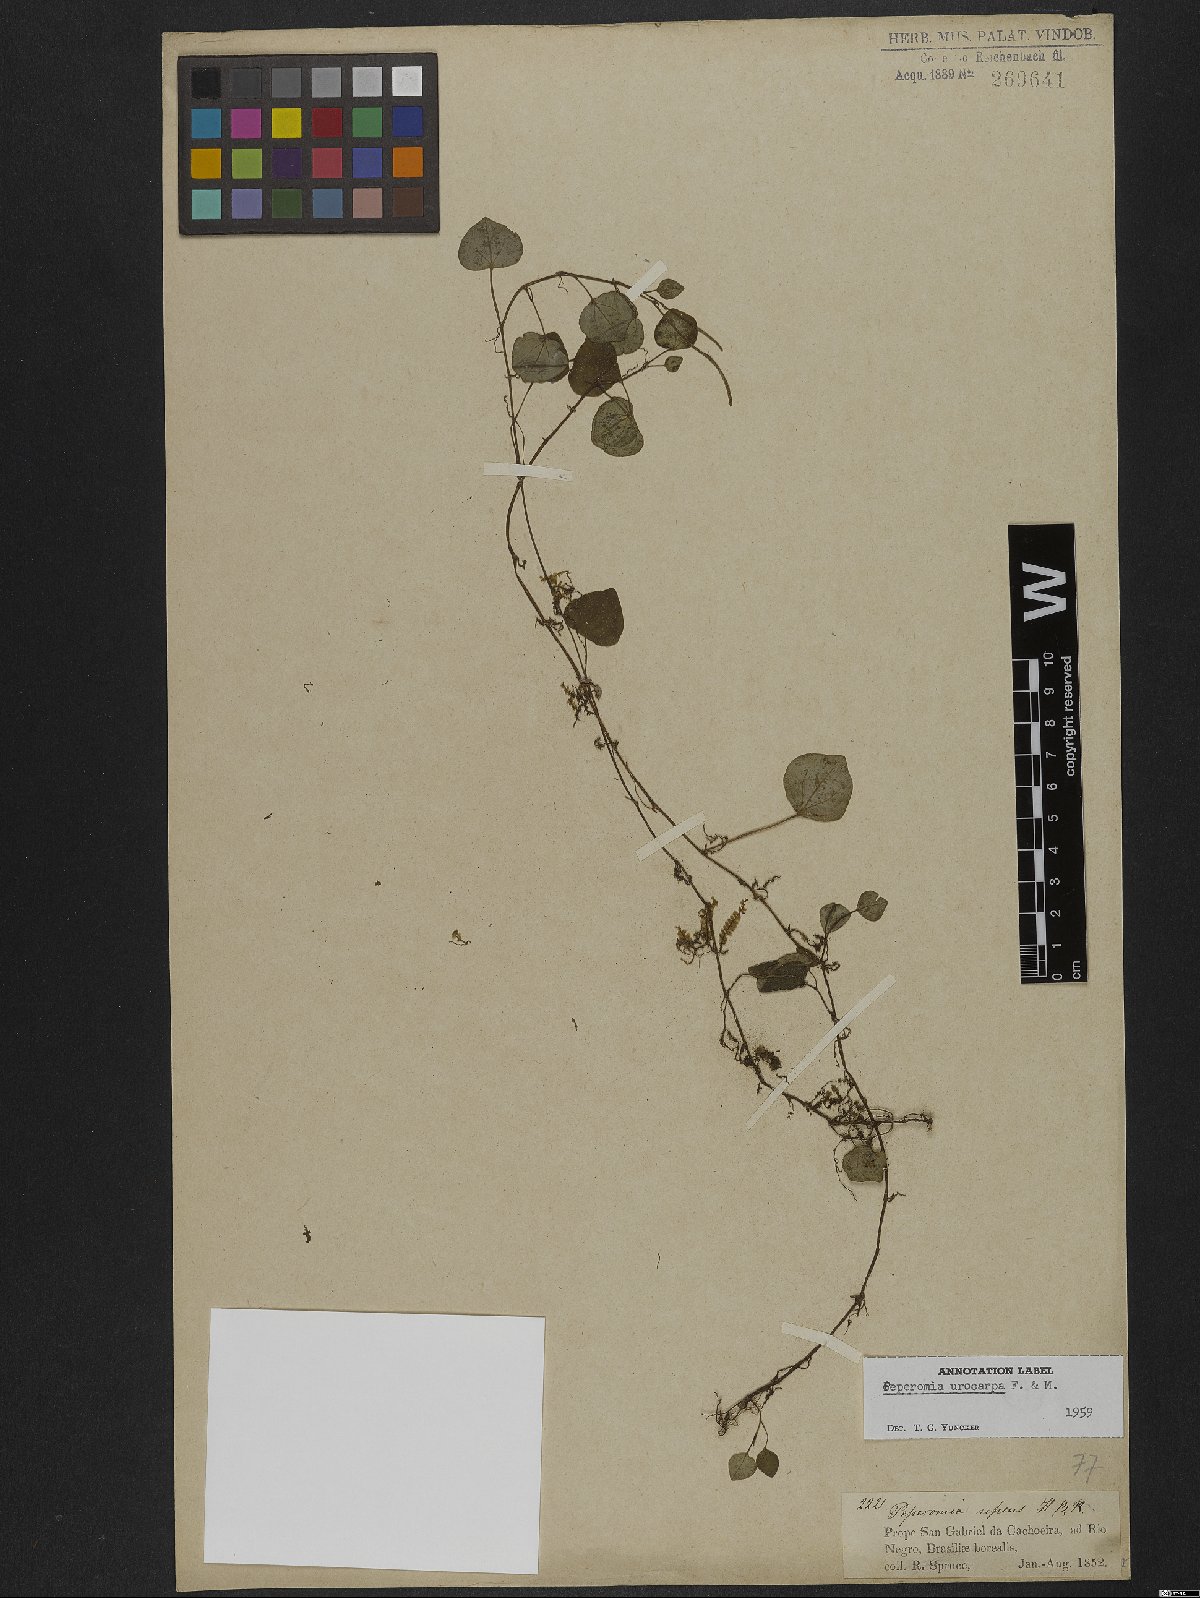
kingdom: Plantae
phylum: Tracheophyta
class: Magnoliopsida
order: Piperales
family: Piperaceae
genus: Peperomia
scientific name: Peperomia urocarpa
